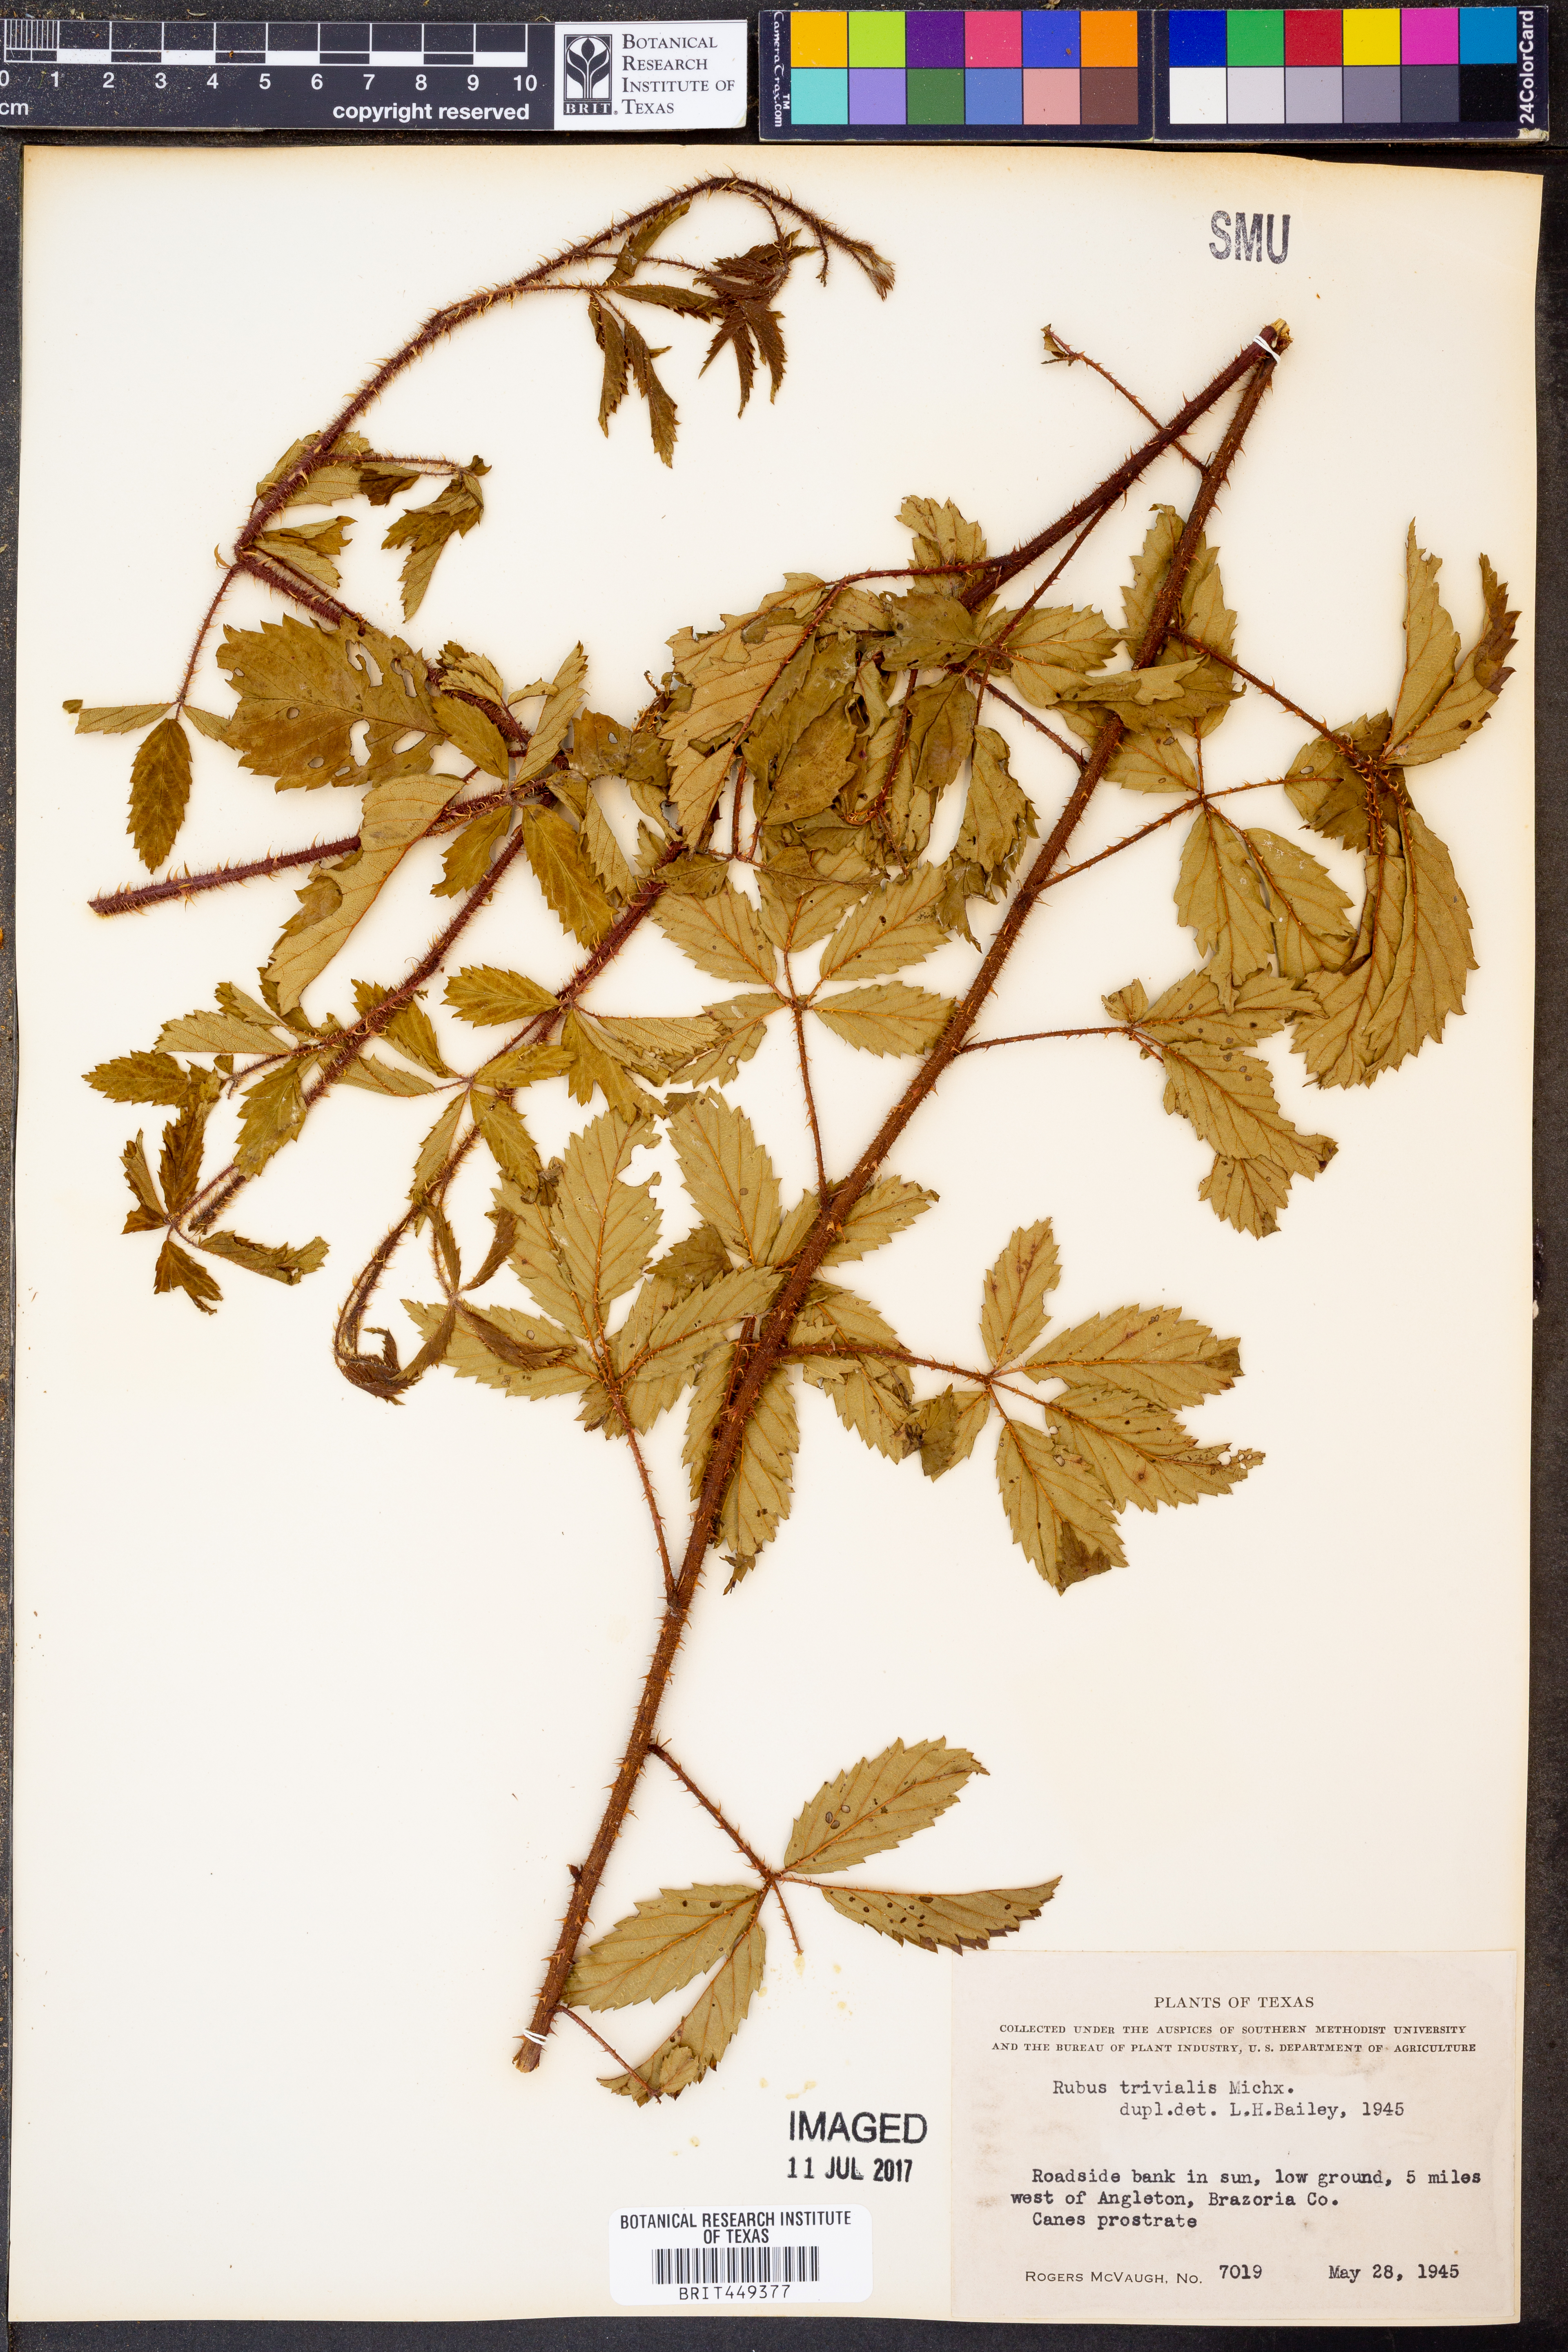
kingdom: Plantae
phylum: Tracheophyta
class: Magnoliopsida
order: Rosales
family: Rosaceae
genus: Rubus
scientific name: Rubus trivialis
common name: Southern dewberry
